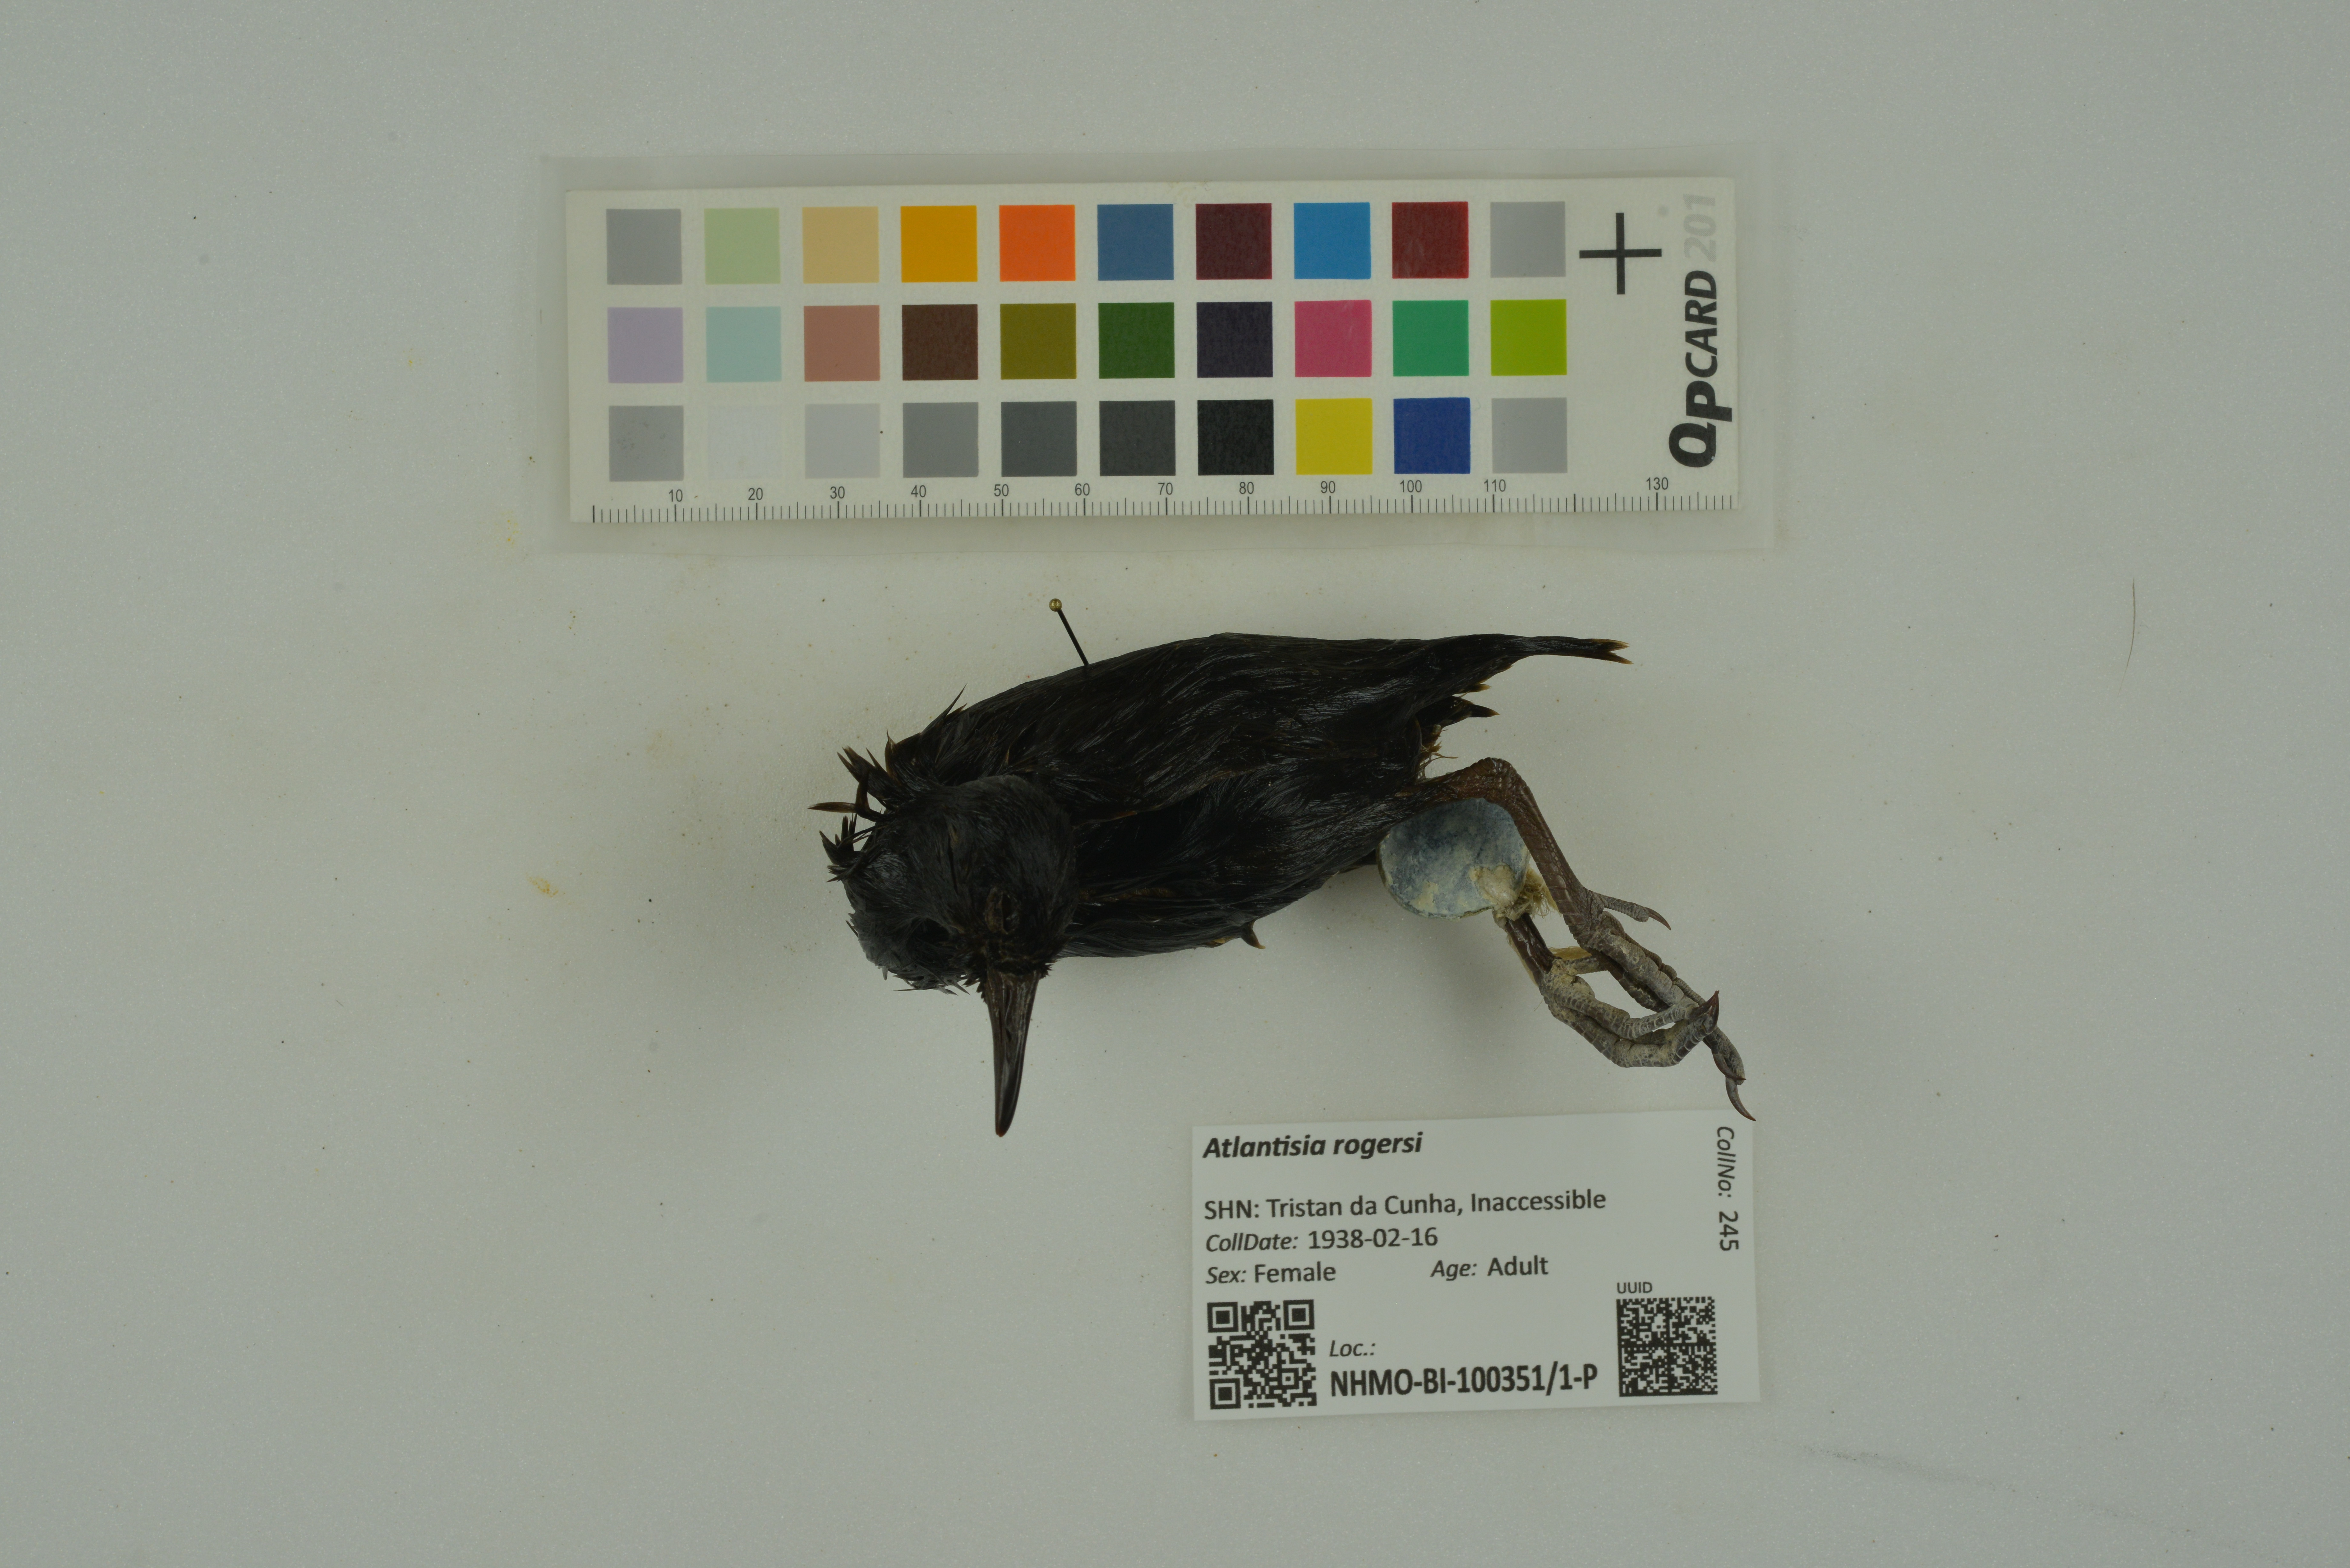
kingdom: Animalia
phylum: Chordata
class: Aves
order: Gruiformes
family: Rallidae
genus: Atlantisia
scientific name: Atlantisia rogersi
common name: Inaccessible island rail
